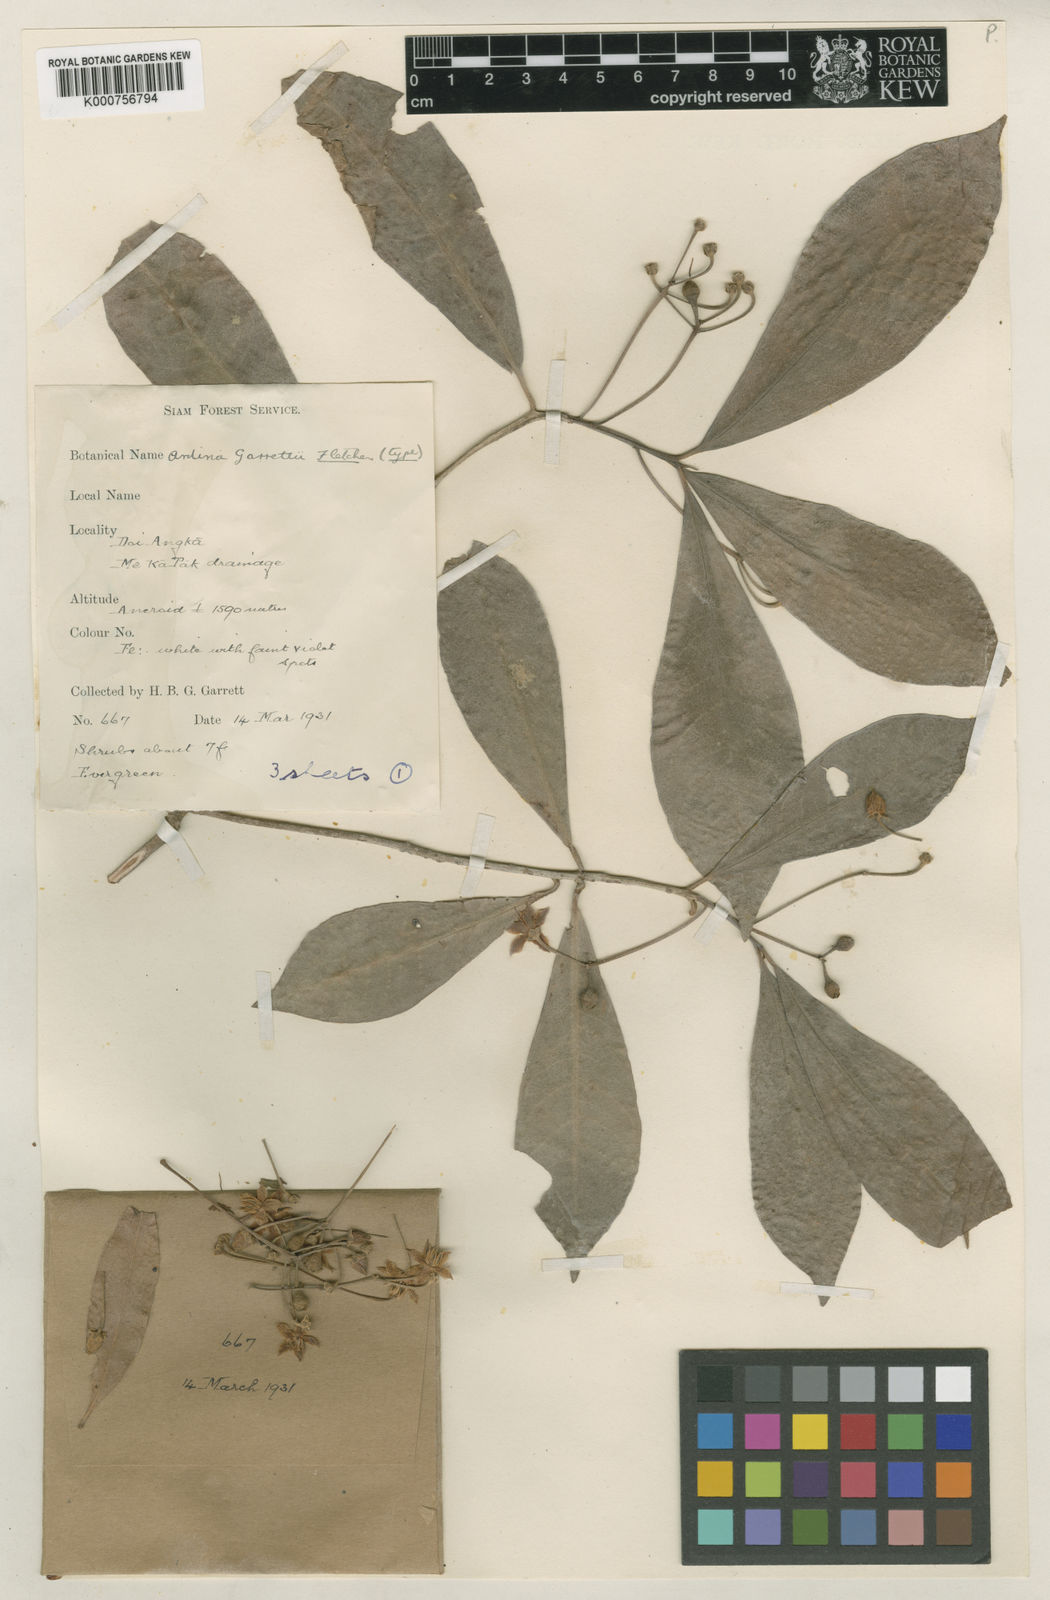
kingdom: Plantae
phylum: Tracheophyta
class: Magnoliopsida
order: Ericales
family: Primulaceae
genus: Ardisia
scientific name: Ardisia attenuata
